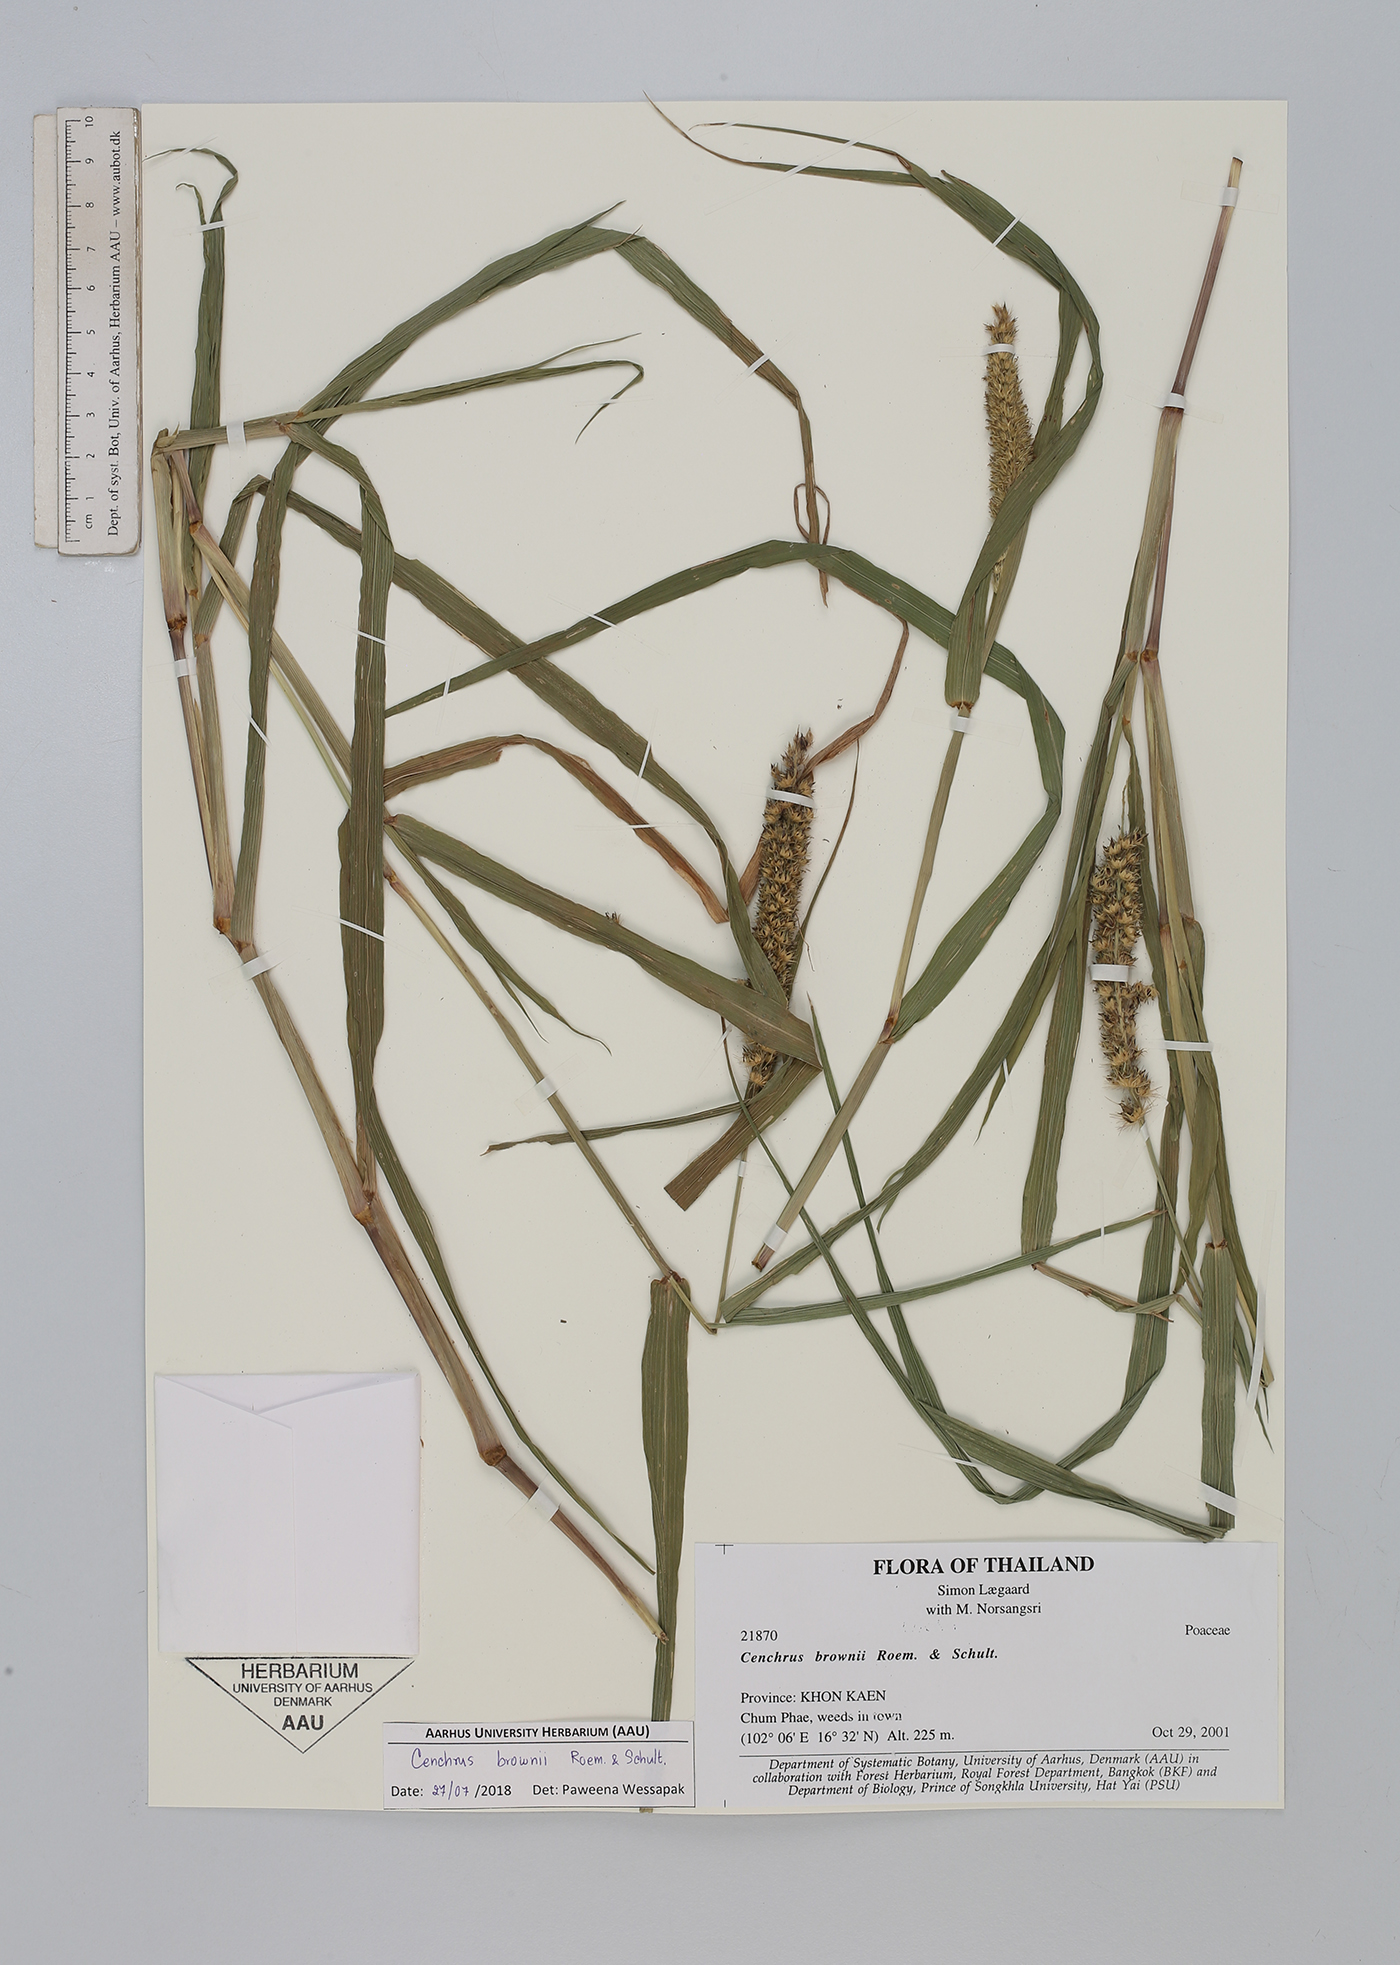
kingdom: Plantae
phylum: Tracheophyta
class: Liliopsida
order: Poales
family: Poaceae
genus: Cenchrus
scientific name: Cenchrus brownii
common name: Slim-bristle sandbur
